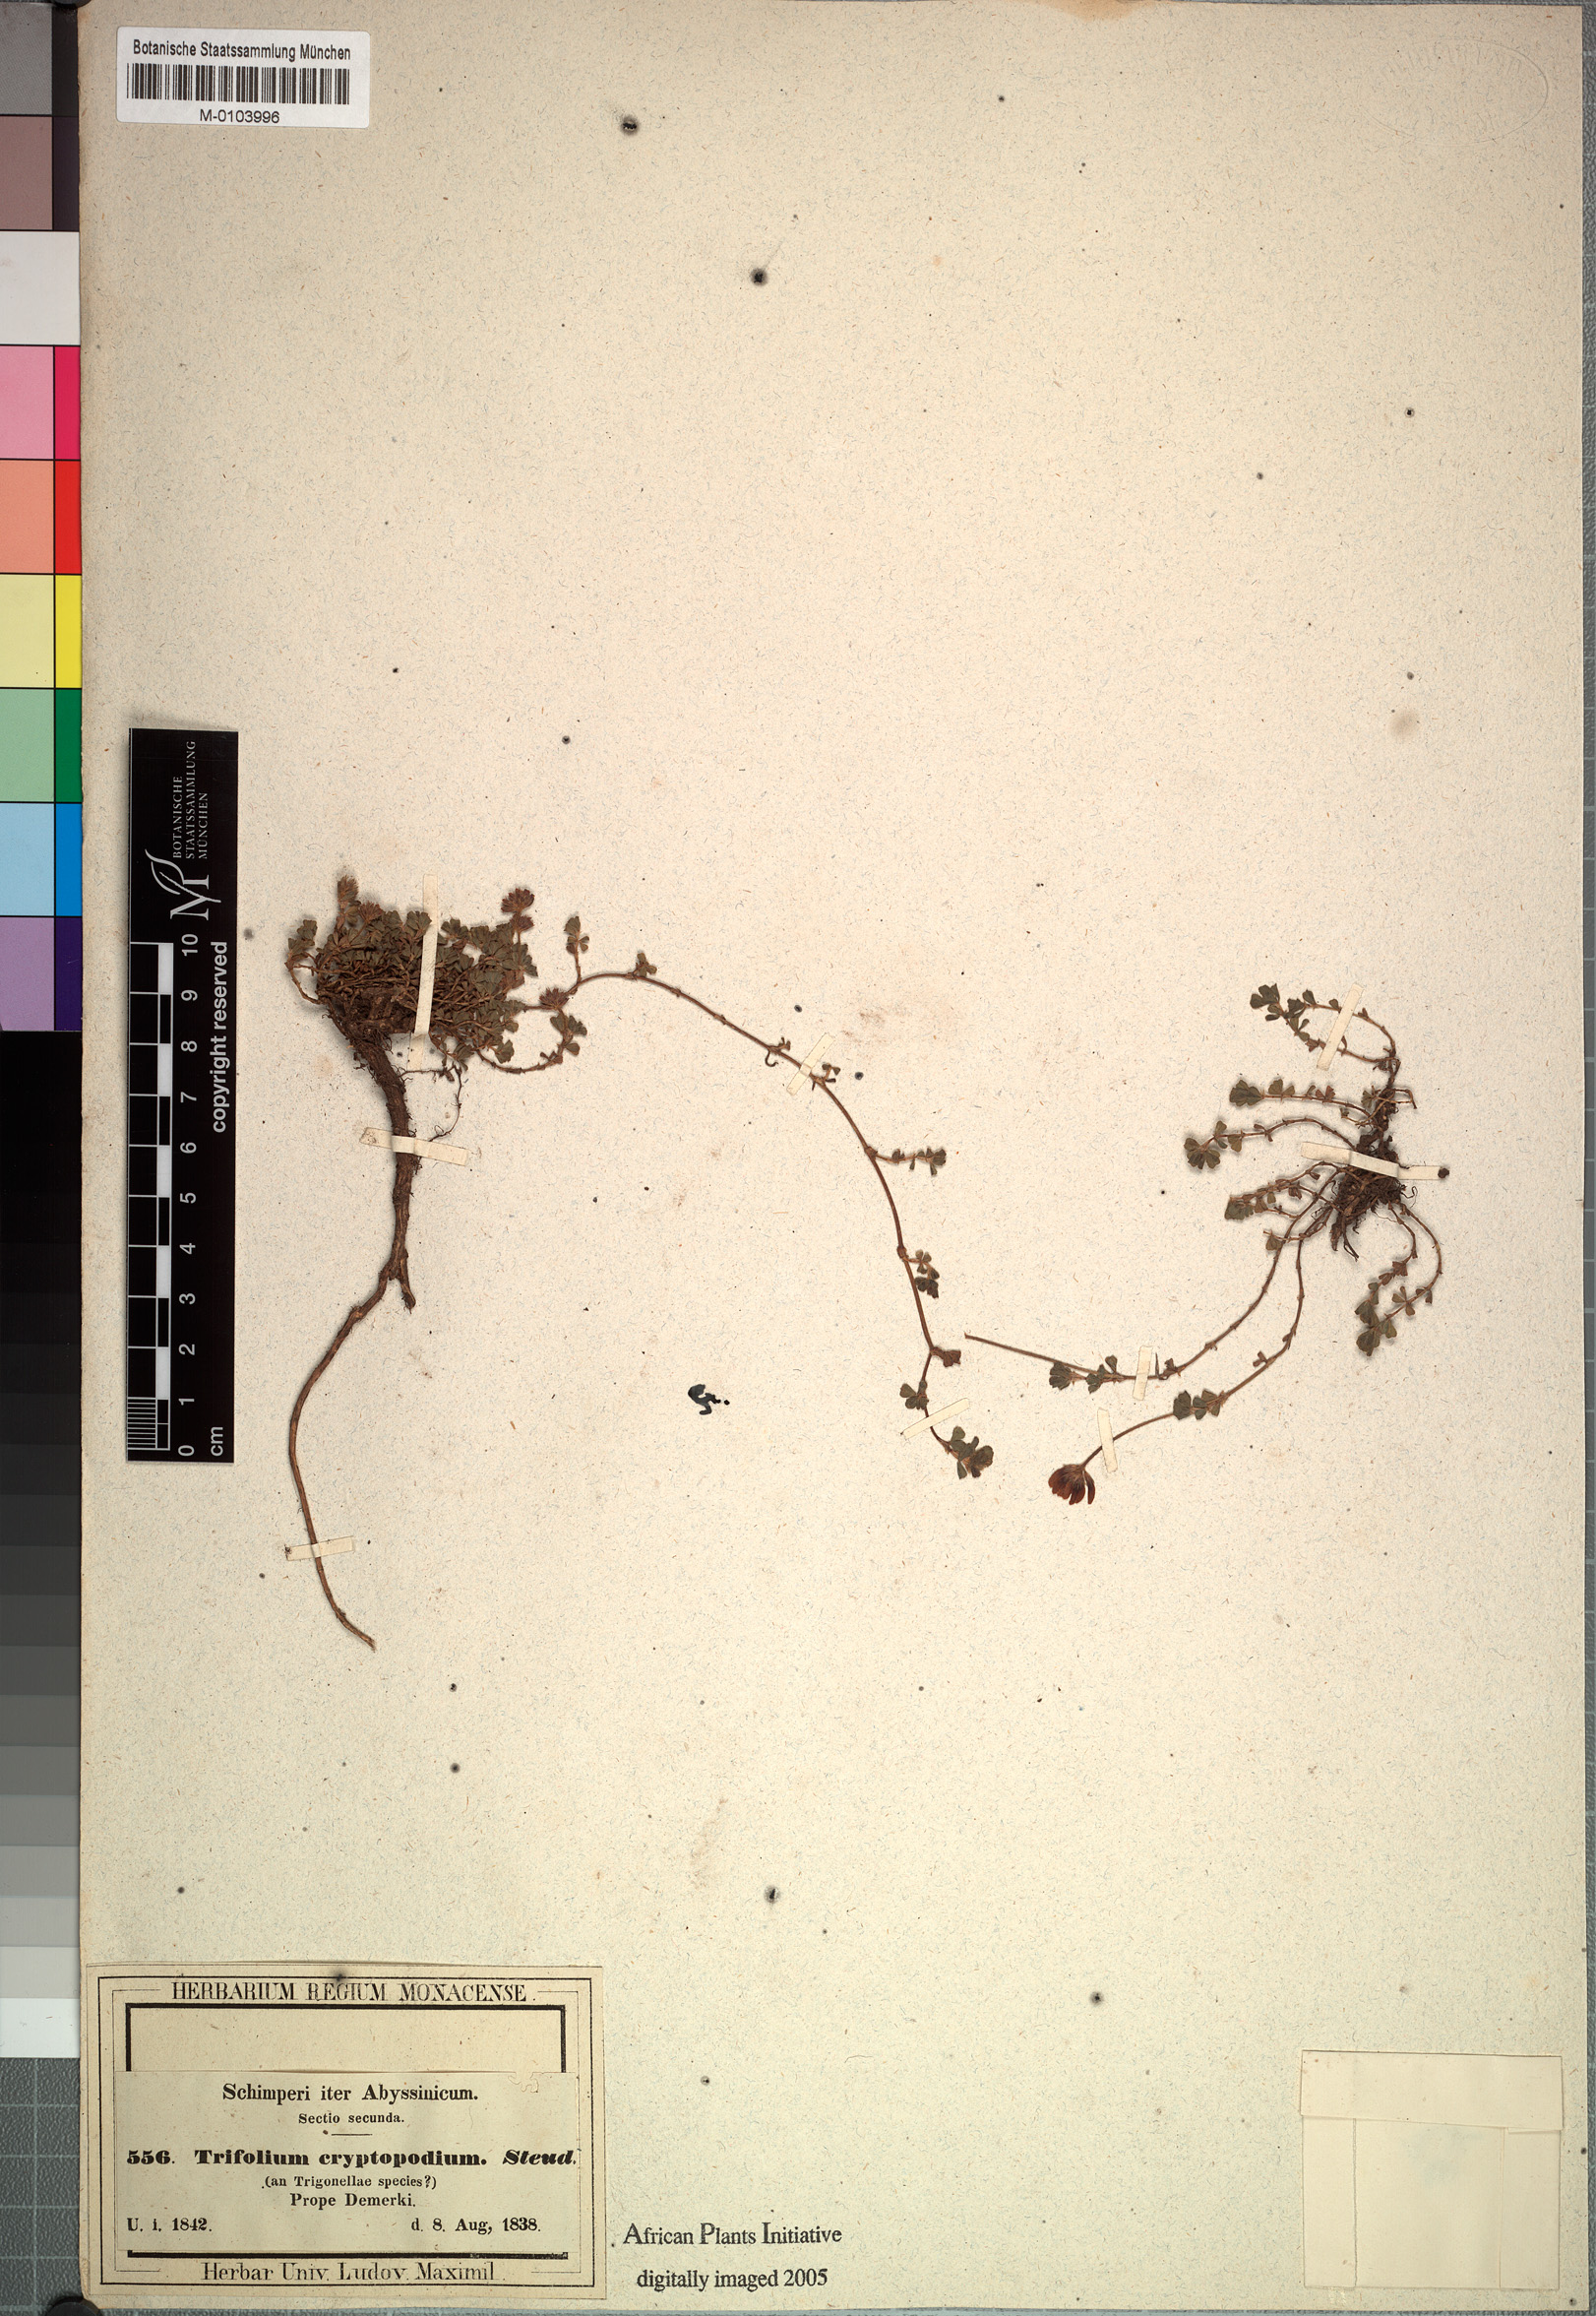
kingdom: Plantae
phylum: Tracheophyta
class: Magnoliopsida
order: Fabales
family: Fabaceae
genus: Trifolium
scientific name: Trifolium cryptopodium
